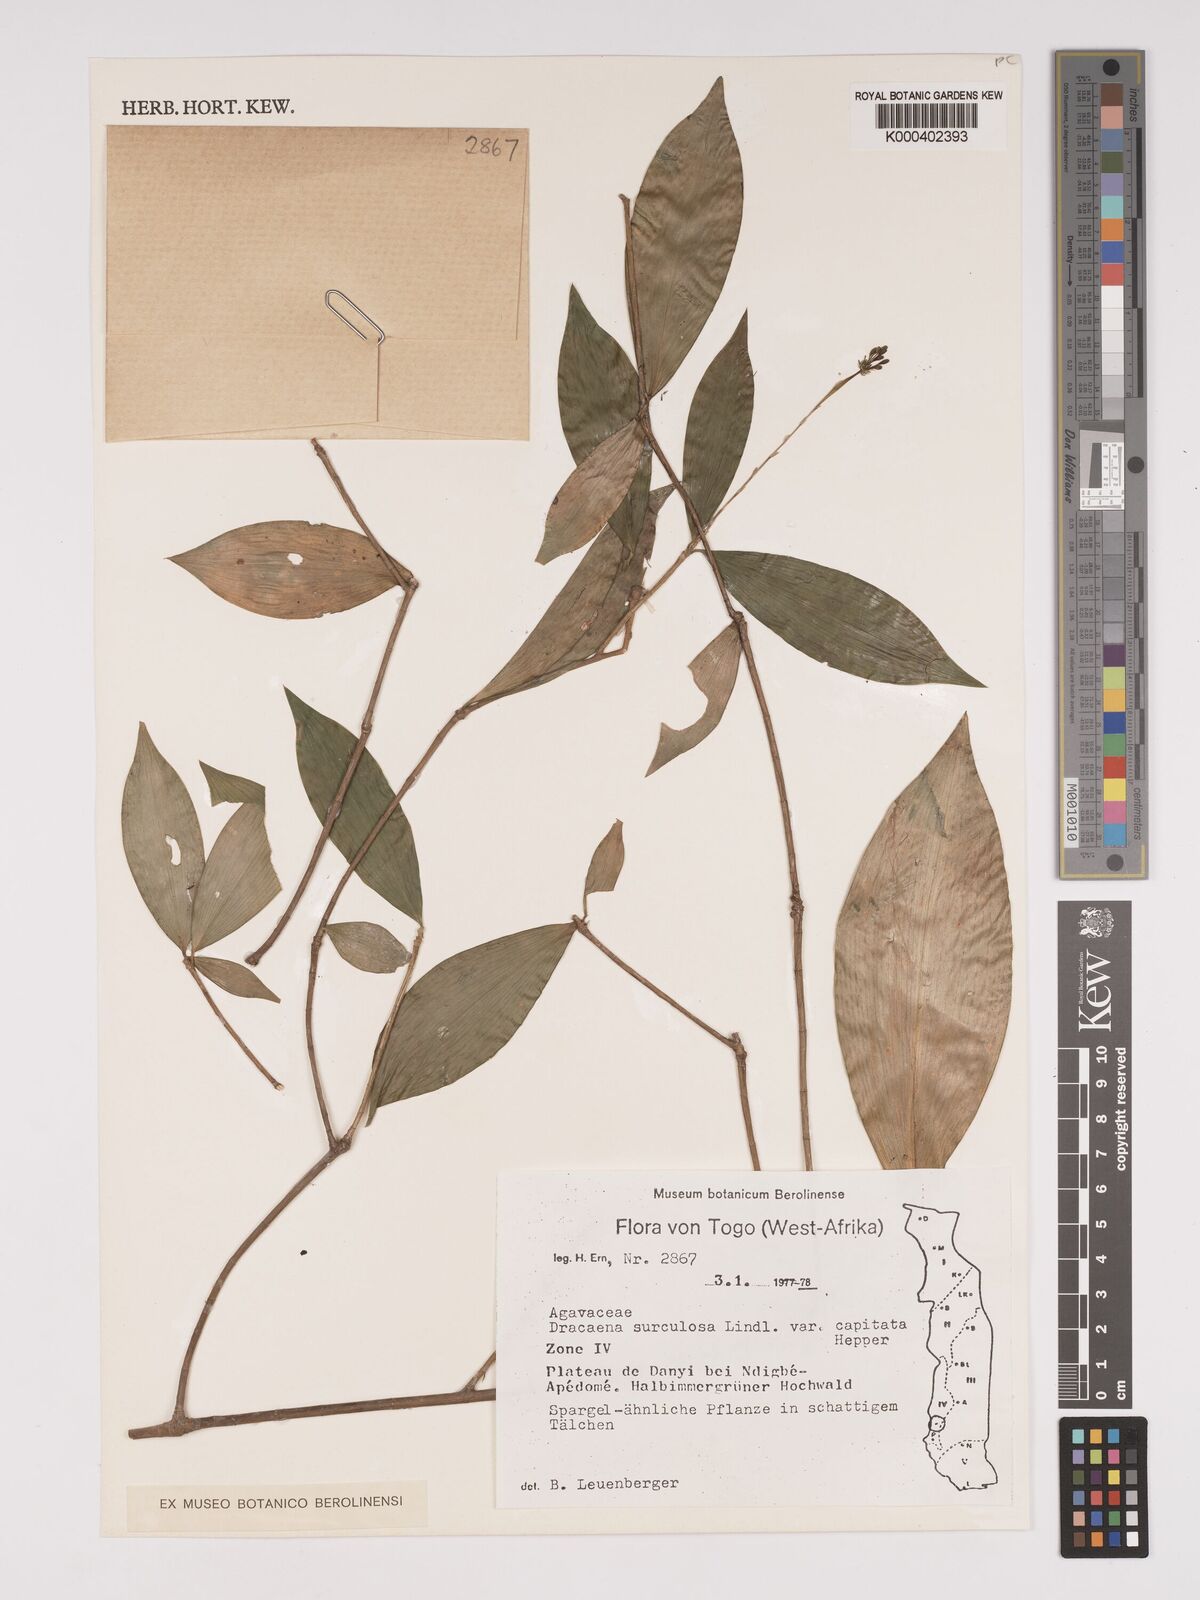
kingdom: Plantae
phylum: Tracheophyta
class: Liliopsida
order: Asparagales
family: Asparagaceae
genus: Dracaena
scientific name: Dracaena surculosa
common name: Spotted dracaena
